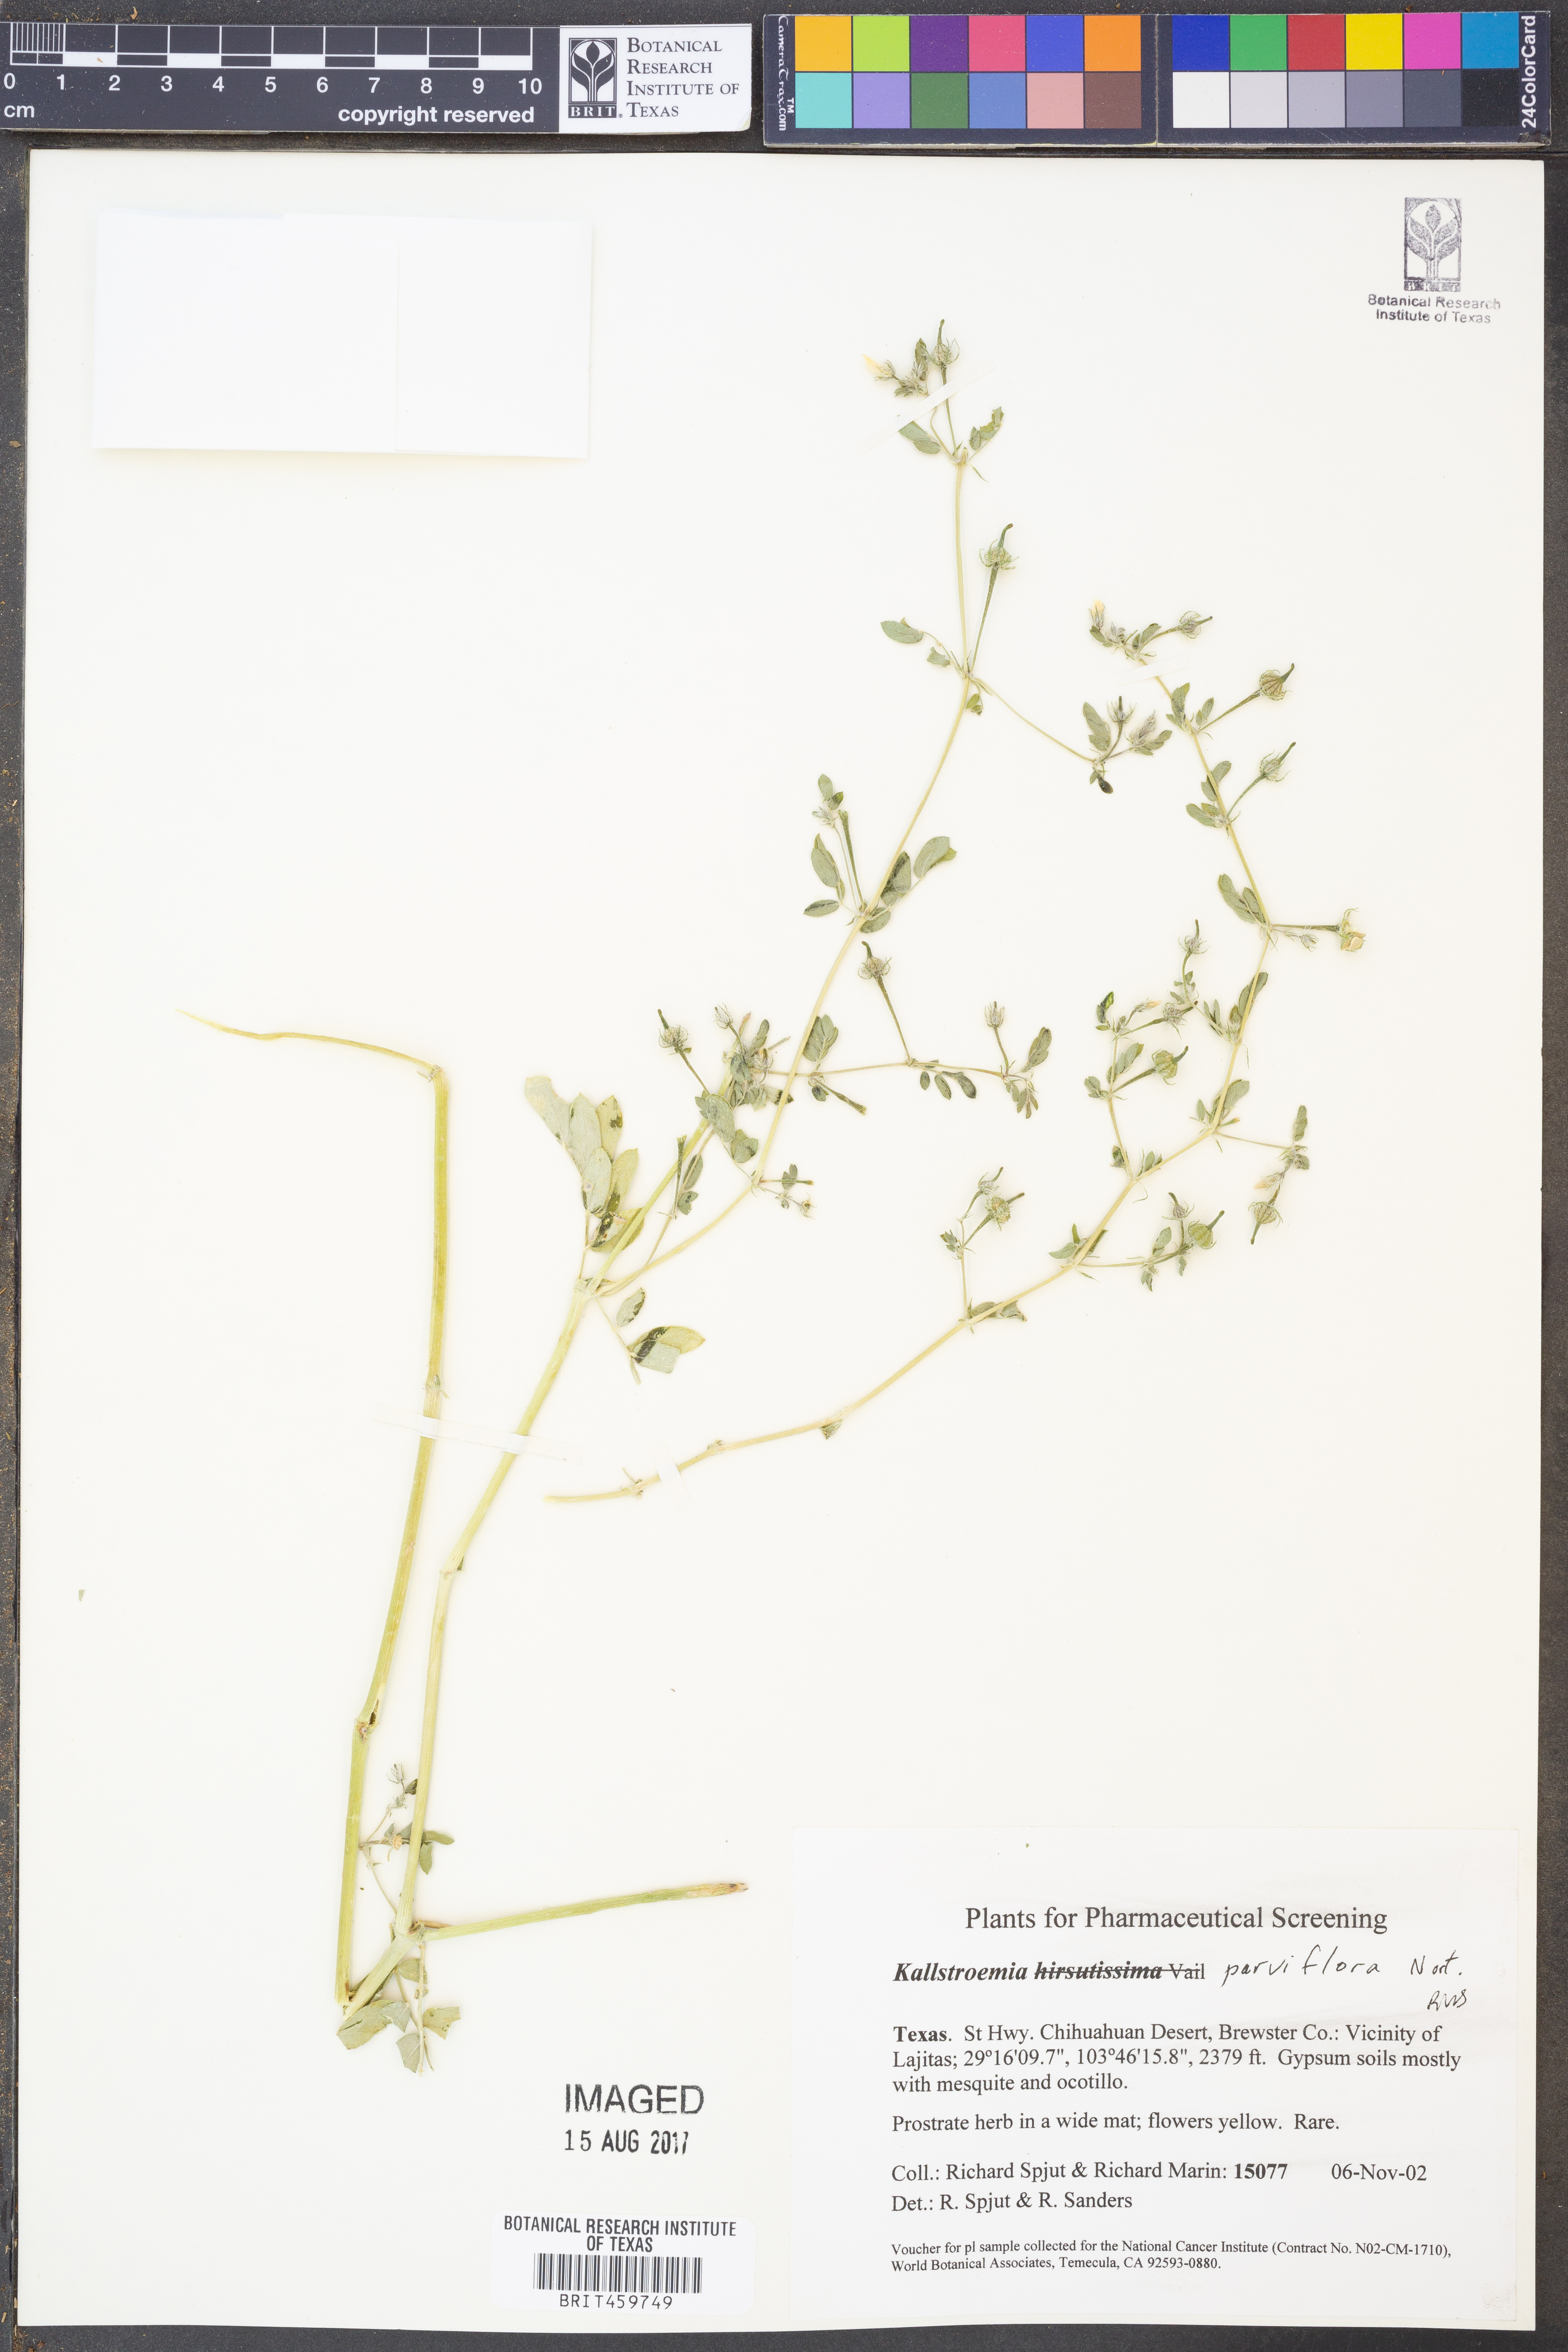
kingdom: Plantae
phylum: Tracheophyta
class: Magnoliopsida
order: Zygophyllales
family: Zygophyllaceae
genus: Kallstroemia
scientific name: Kallstroemia parviflora
